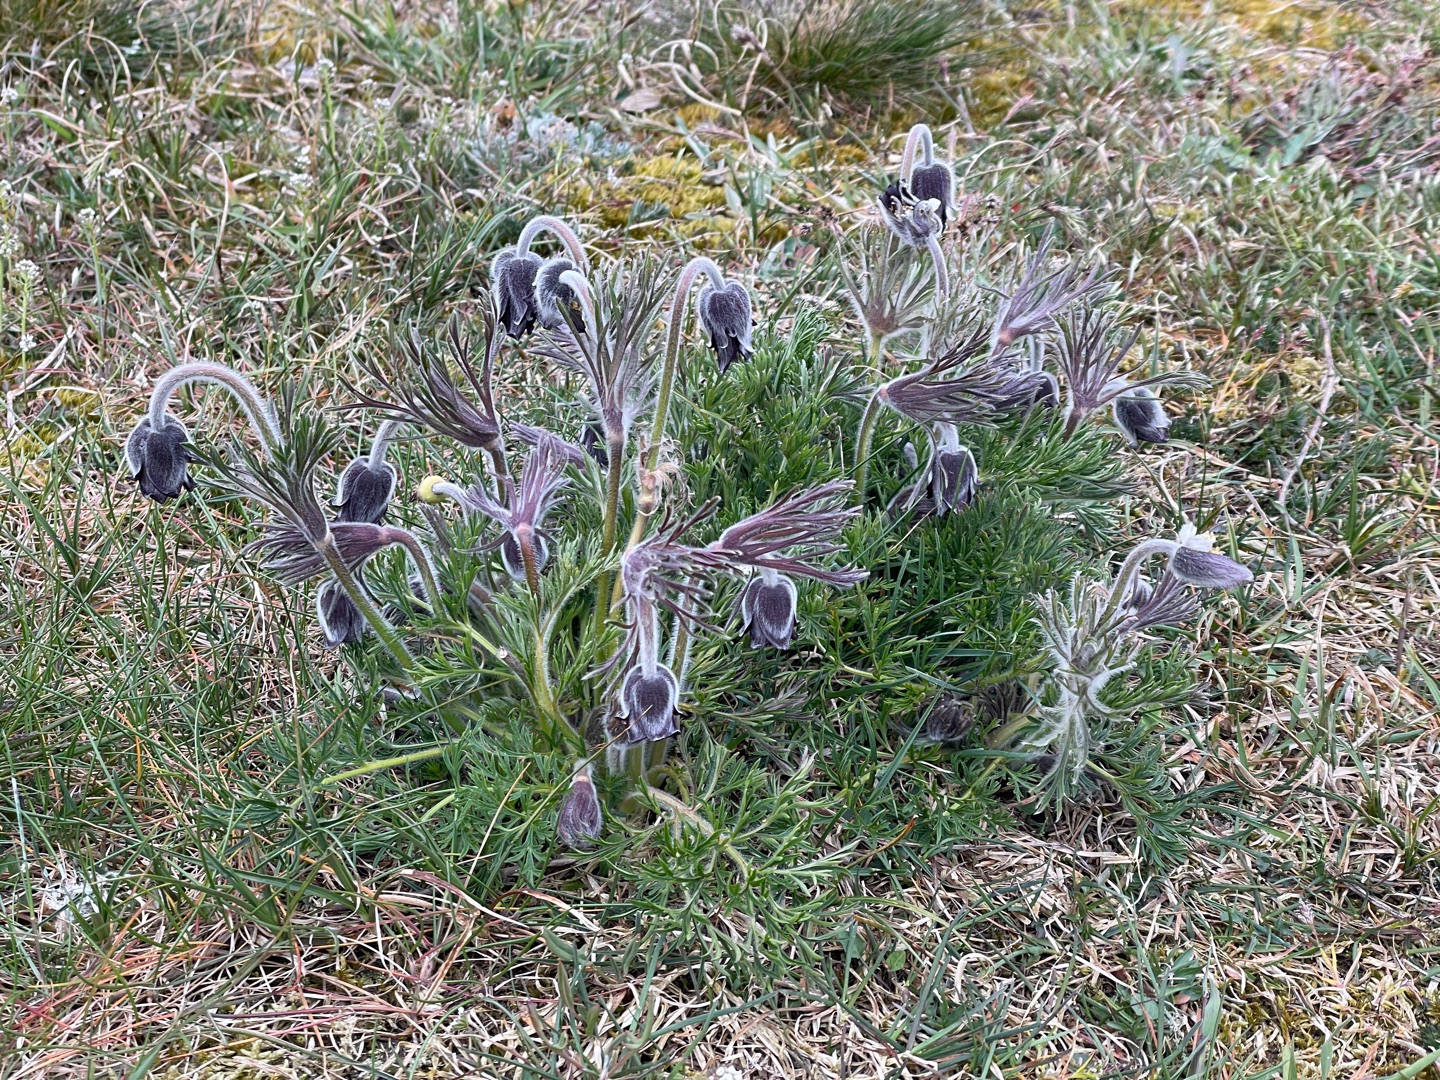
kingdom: Plantae
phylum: Tracheophyta
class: Magnoliopsida
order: Ranunculales
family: Ranunculaceae
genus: Pulsatilla
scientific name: Pulsatilla pratensis
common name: Nikkende kobjælde
